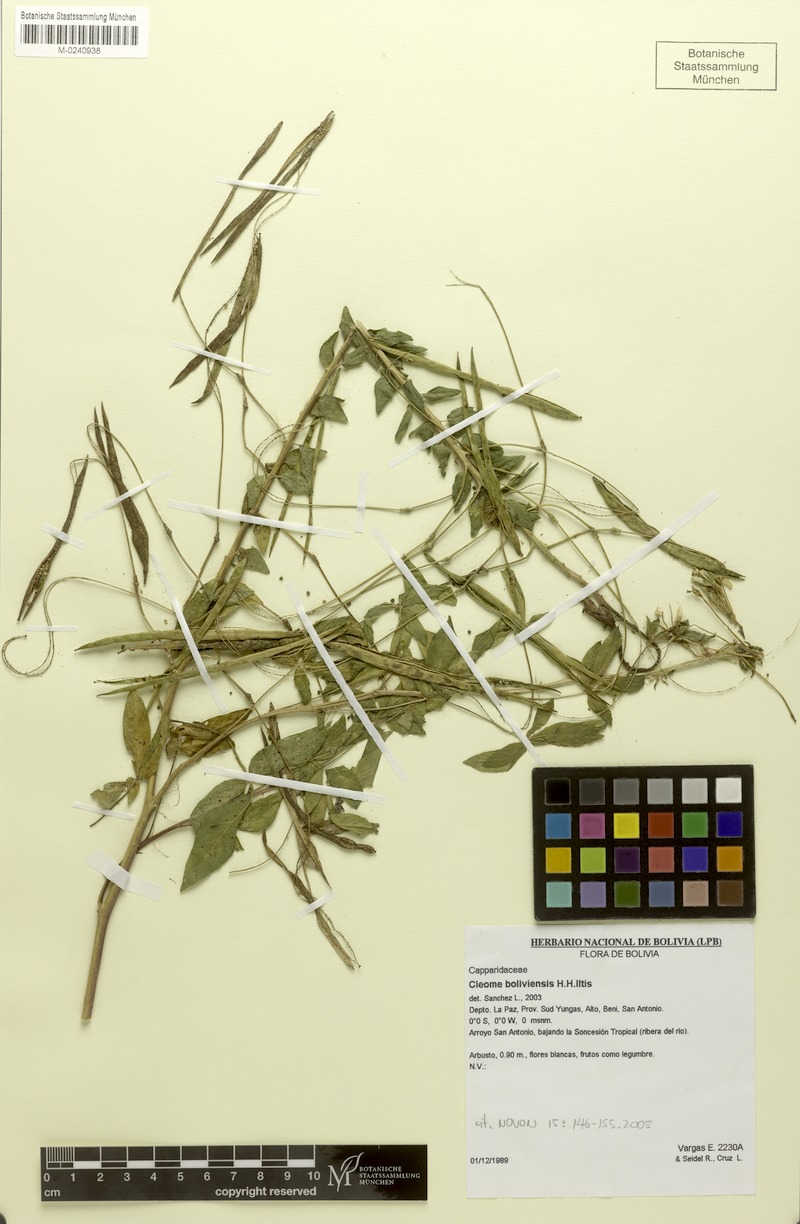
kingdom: Plantae
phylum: Tracheophyta
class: Magnoliopsida
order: Brassicales
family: Cleomaceae
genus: Tarenaya
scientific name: Tarenaya boliviensis
